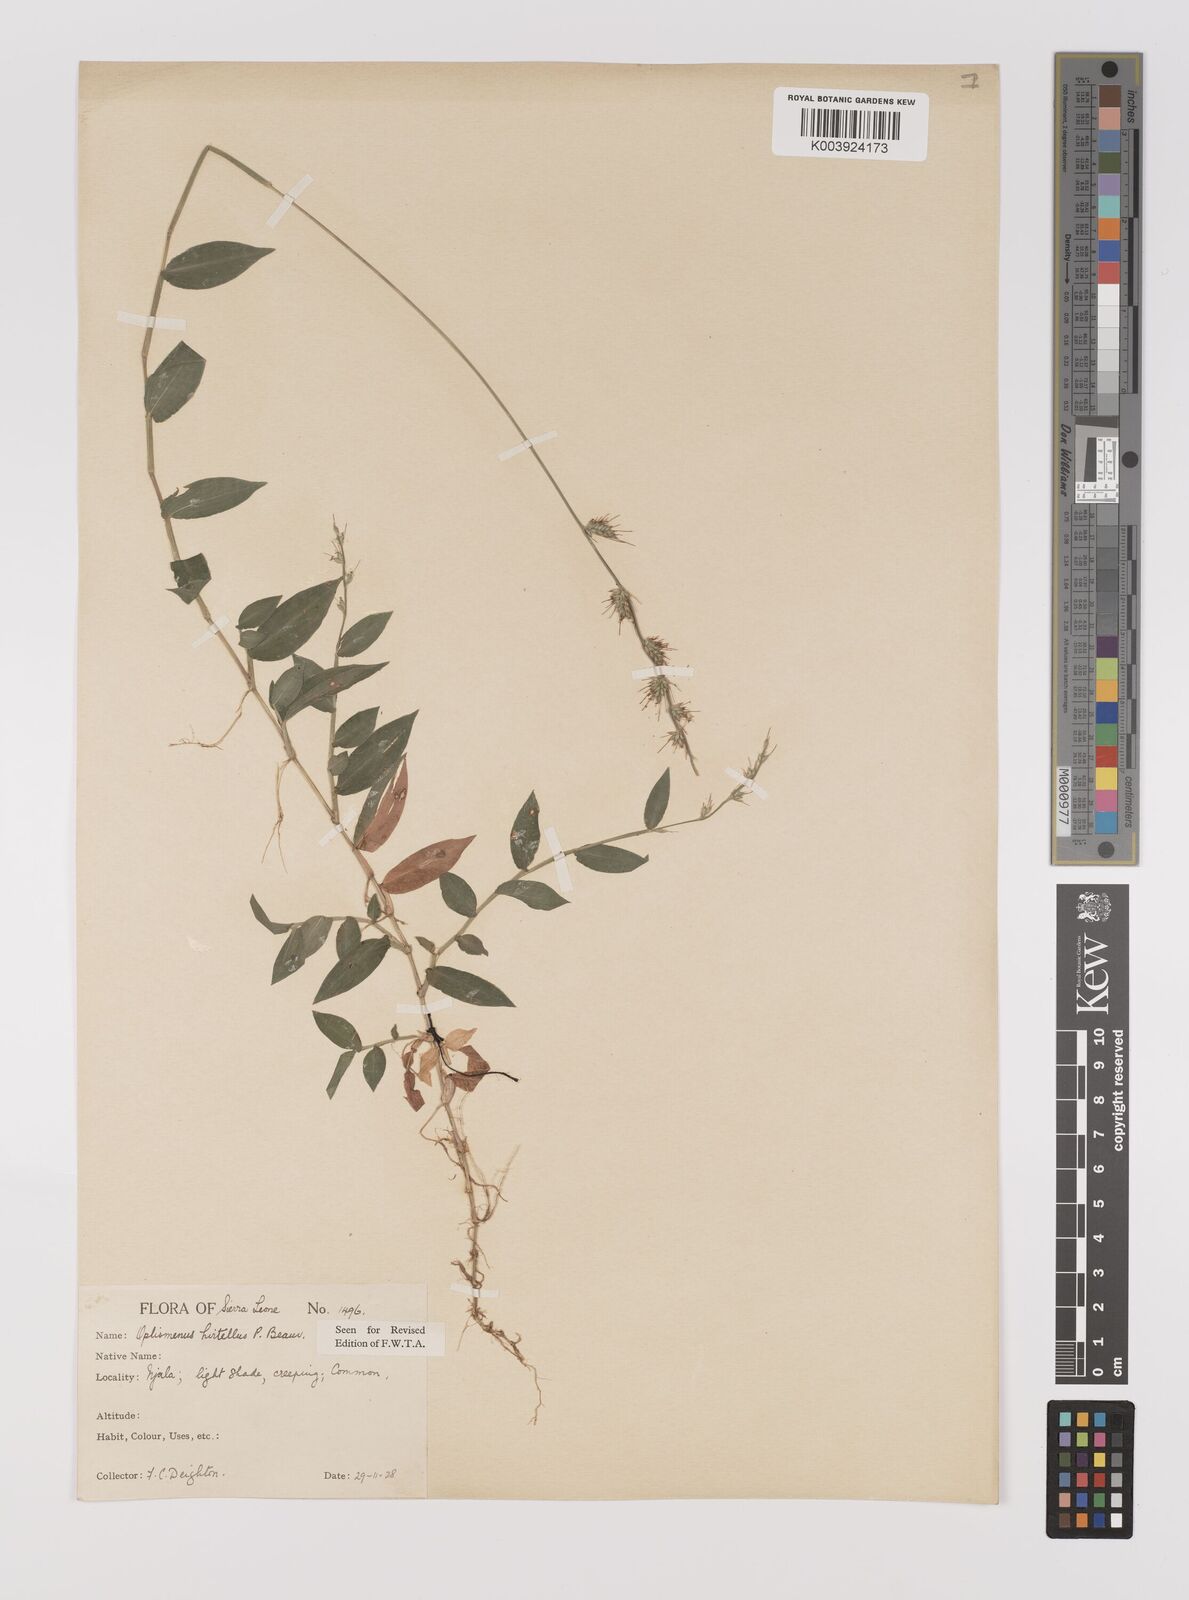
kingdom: Plantae
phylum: Tracheophyta
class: Liliopsida
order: Poales
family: Poaceae
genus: Oplismenus
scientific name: Oplismenus hirtellus
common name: Basketgrass
